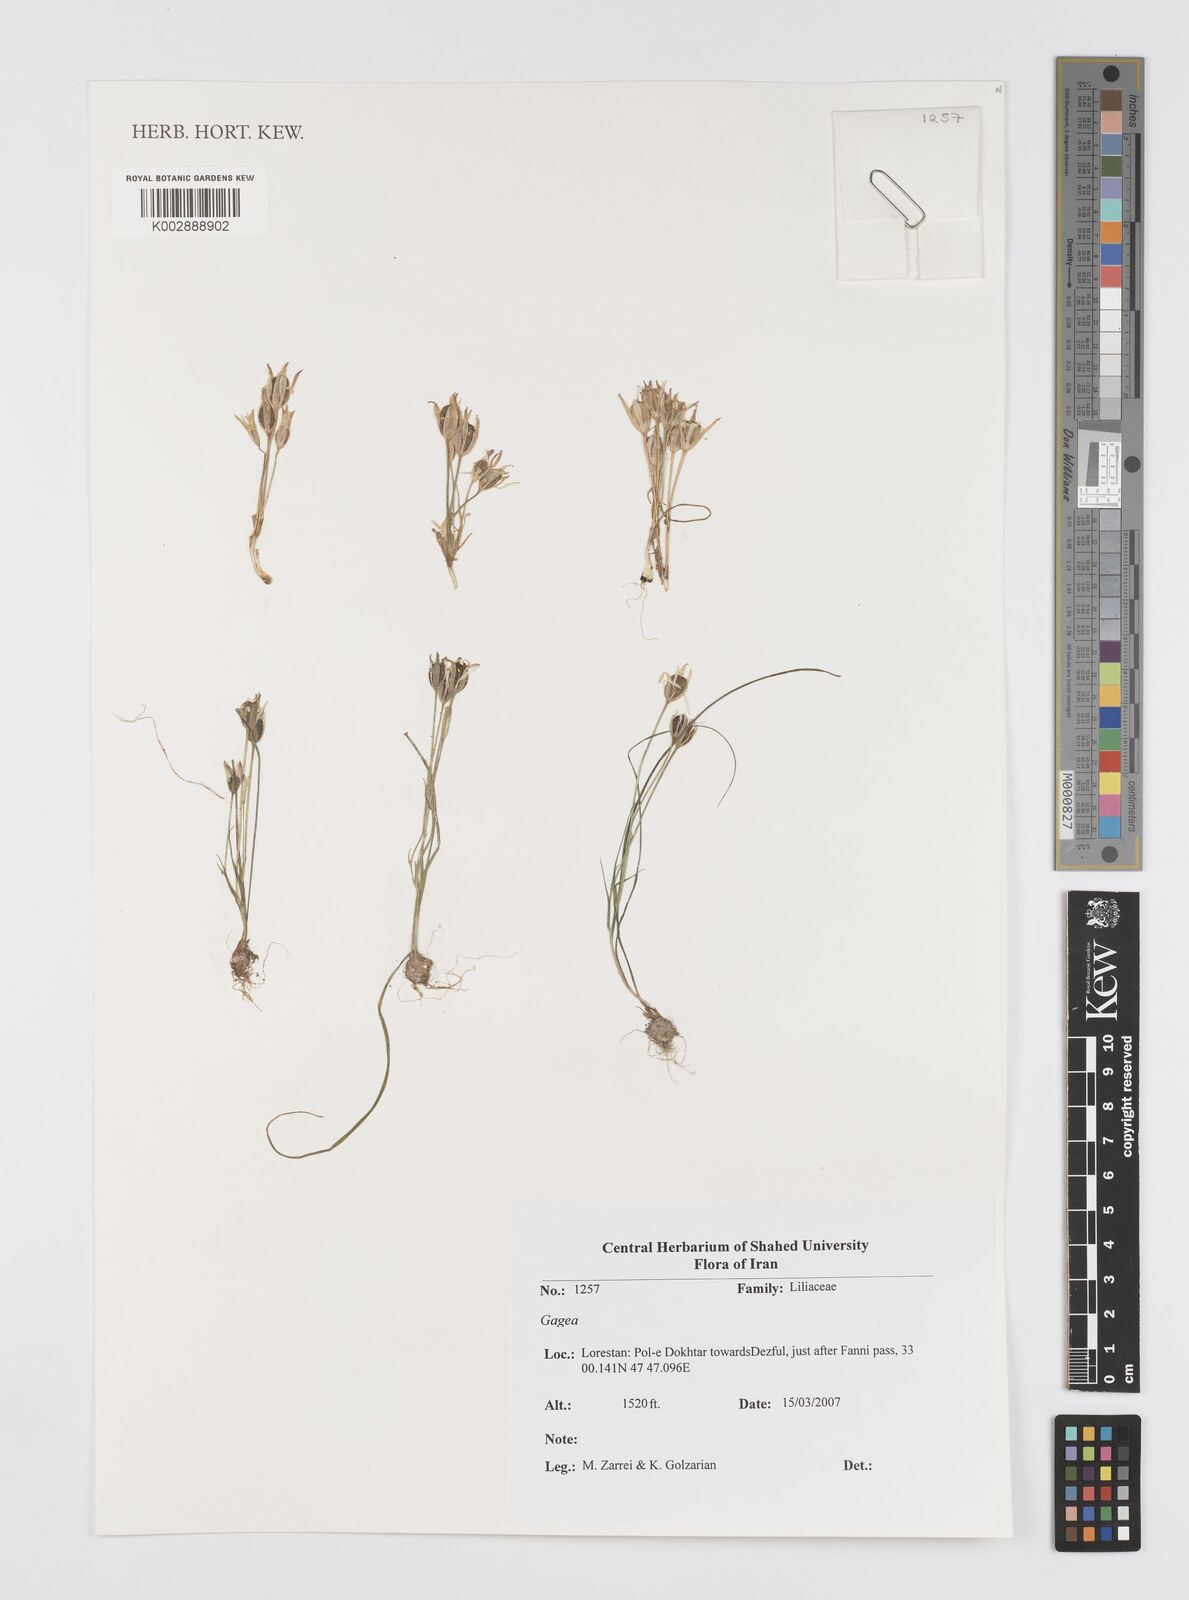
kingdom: Plantae
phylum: Tracheophyta
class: Liliopsida
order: Liliales
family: Liliaceae
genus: Gagea
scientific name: Gagea
